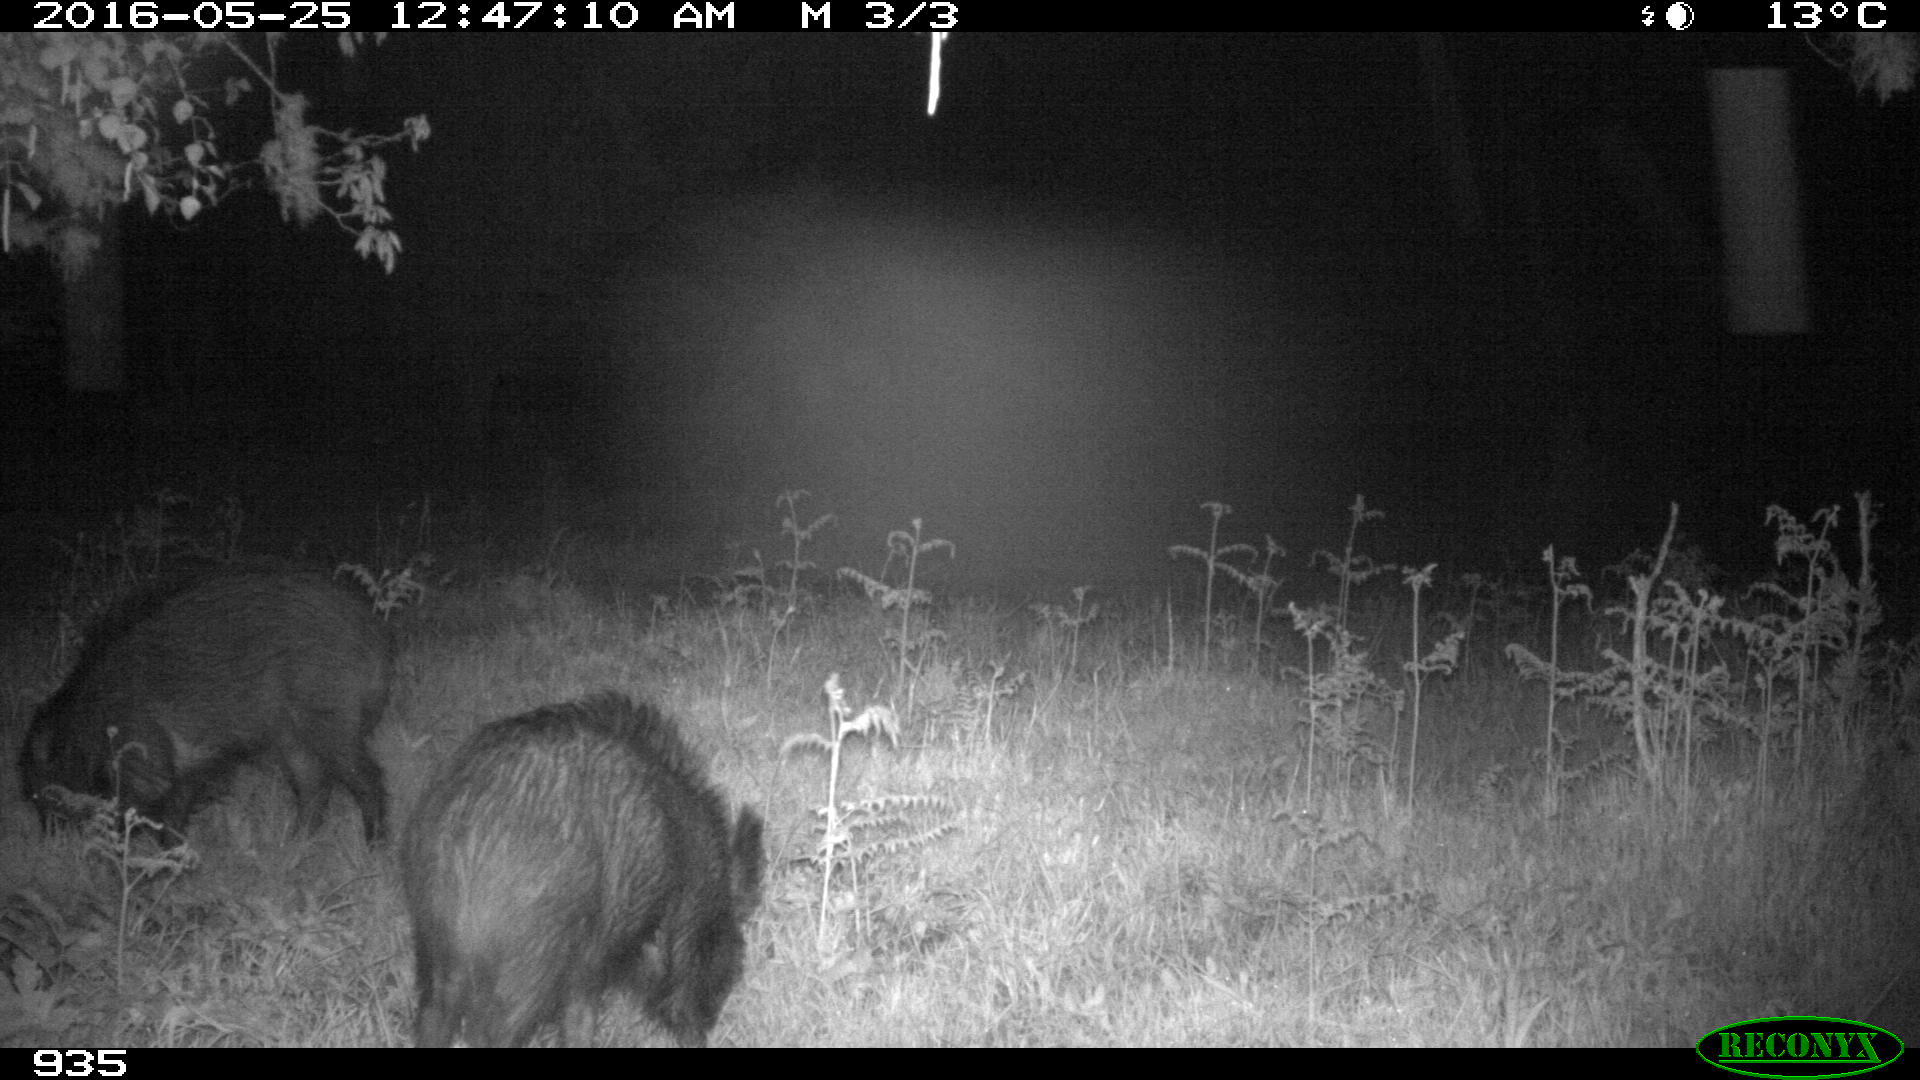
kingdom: Animalia
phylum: Chordata
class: Mammalia
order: Artiodactyla
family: Suidae
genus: Sus
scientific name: Sus scrofa
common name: Wild boar
